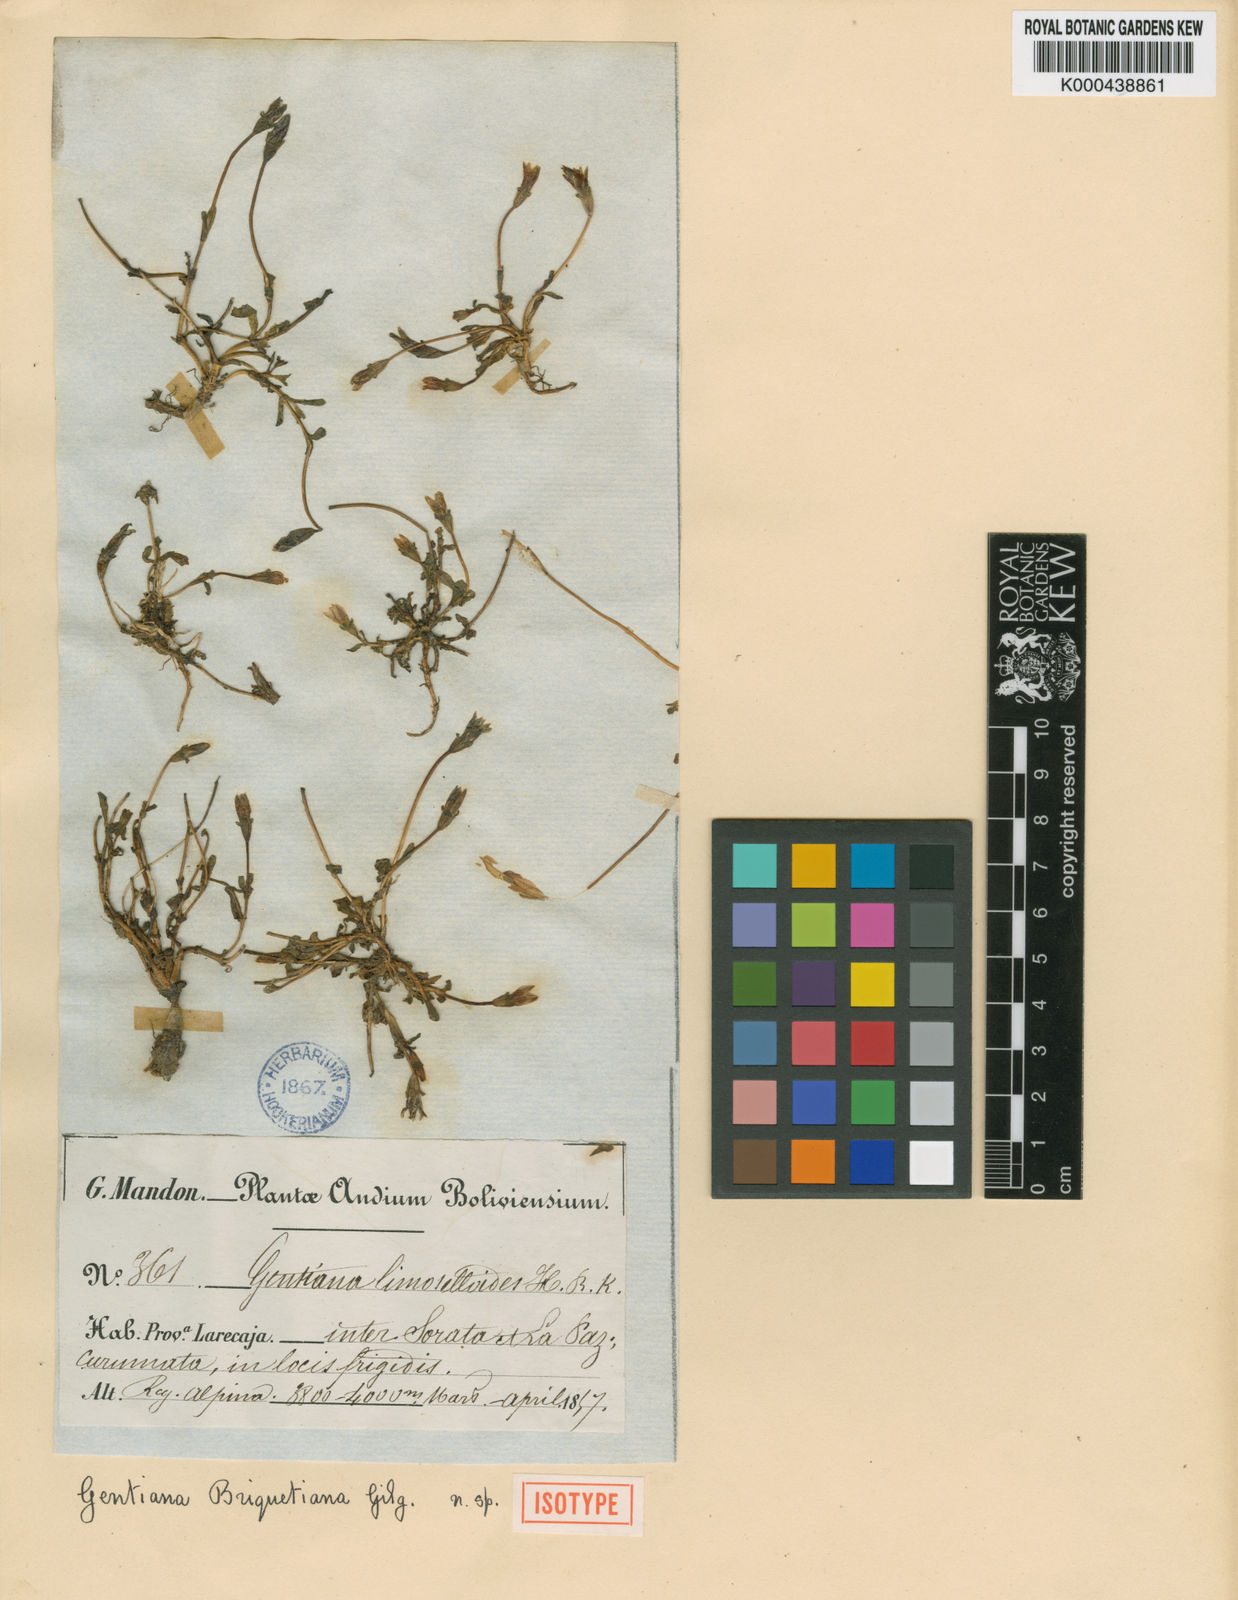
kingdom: Plantae
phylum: Tracheophyta
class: Magnoliopsida
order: Gentianales
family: Gentianaceae
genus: Gentianella
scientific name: Gentianella briquetiana
